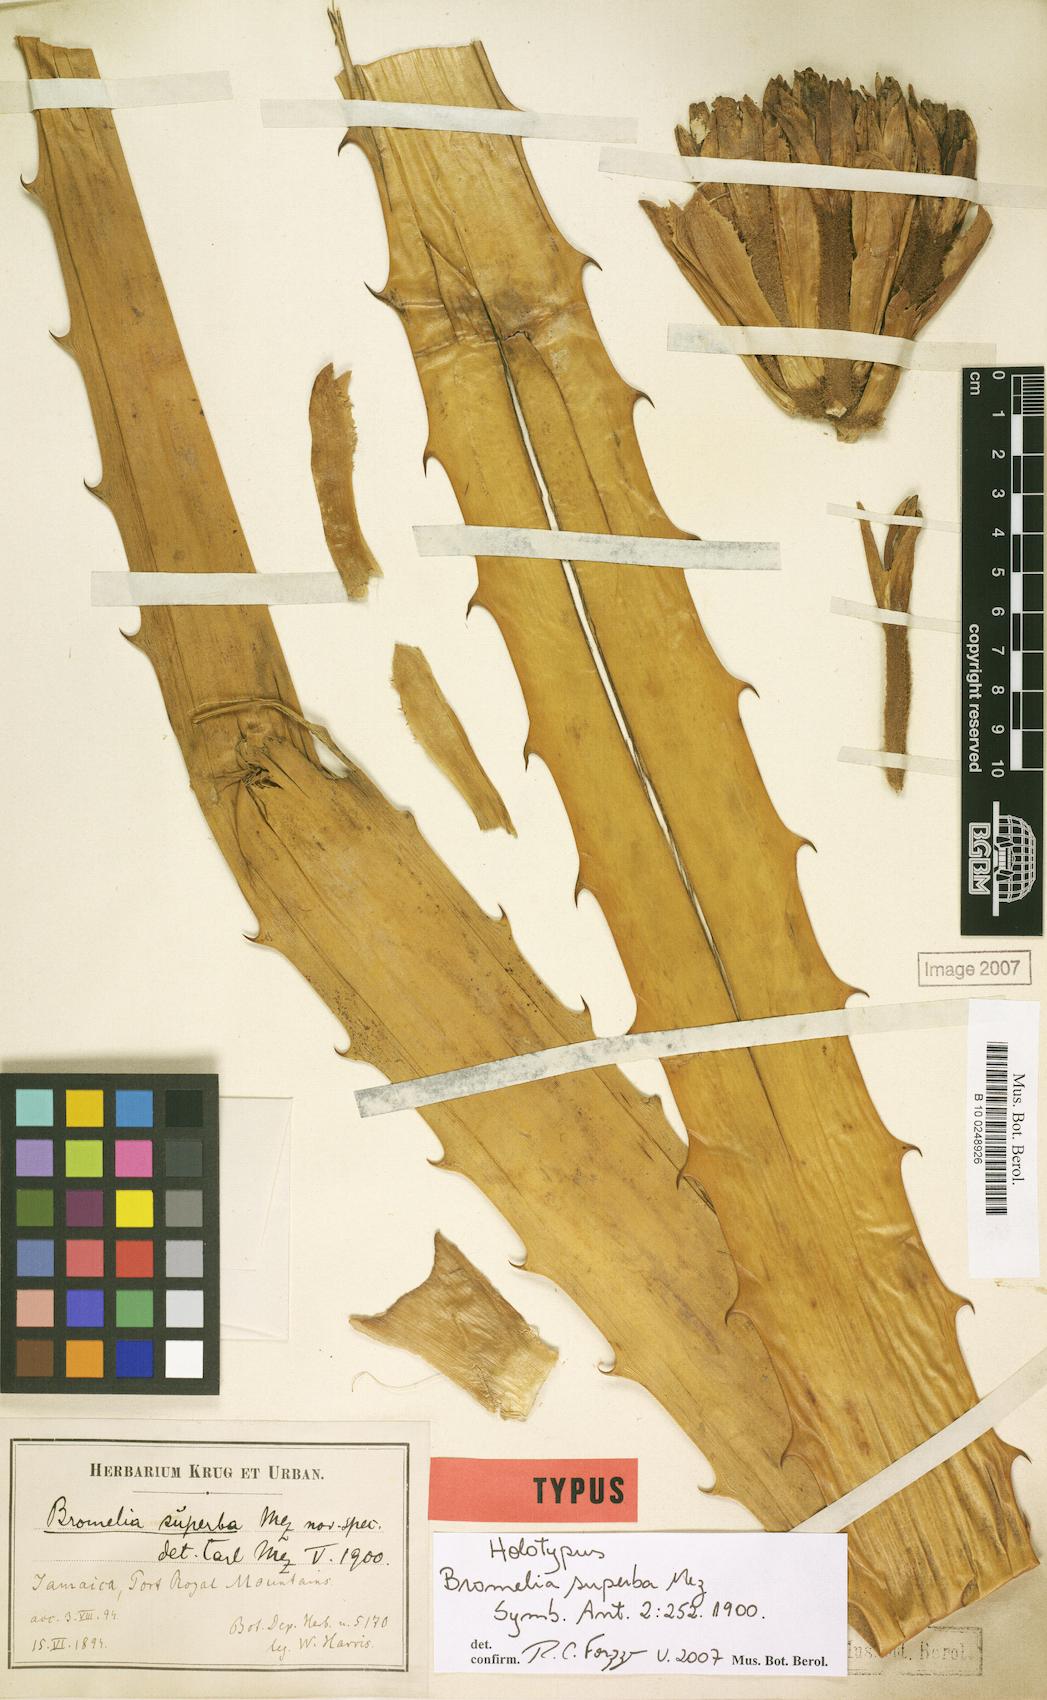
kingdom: Plantae
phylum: Tracheophyta
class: Liliopsida
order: Poales
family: Bromeliaceae
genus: Bromelia
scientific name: Bromelia superba
